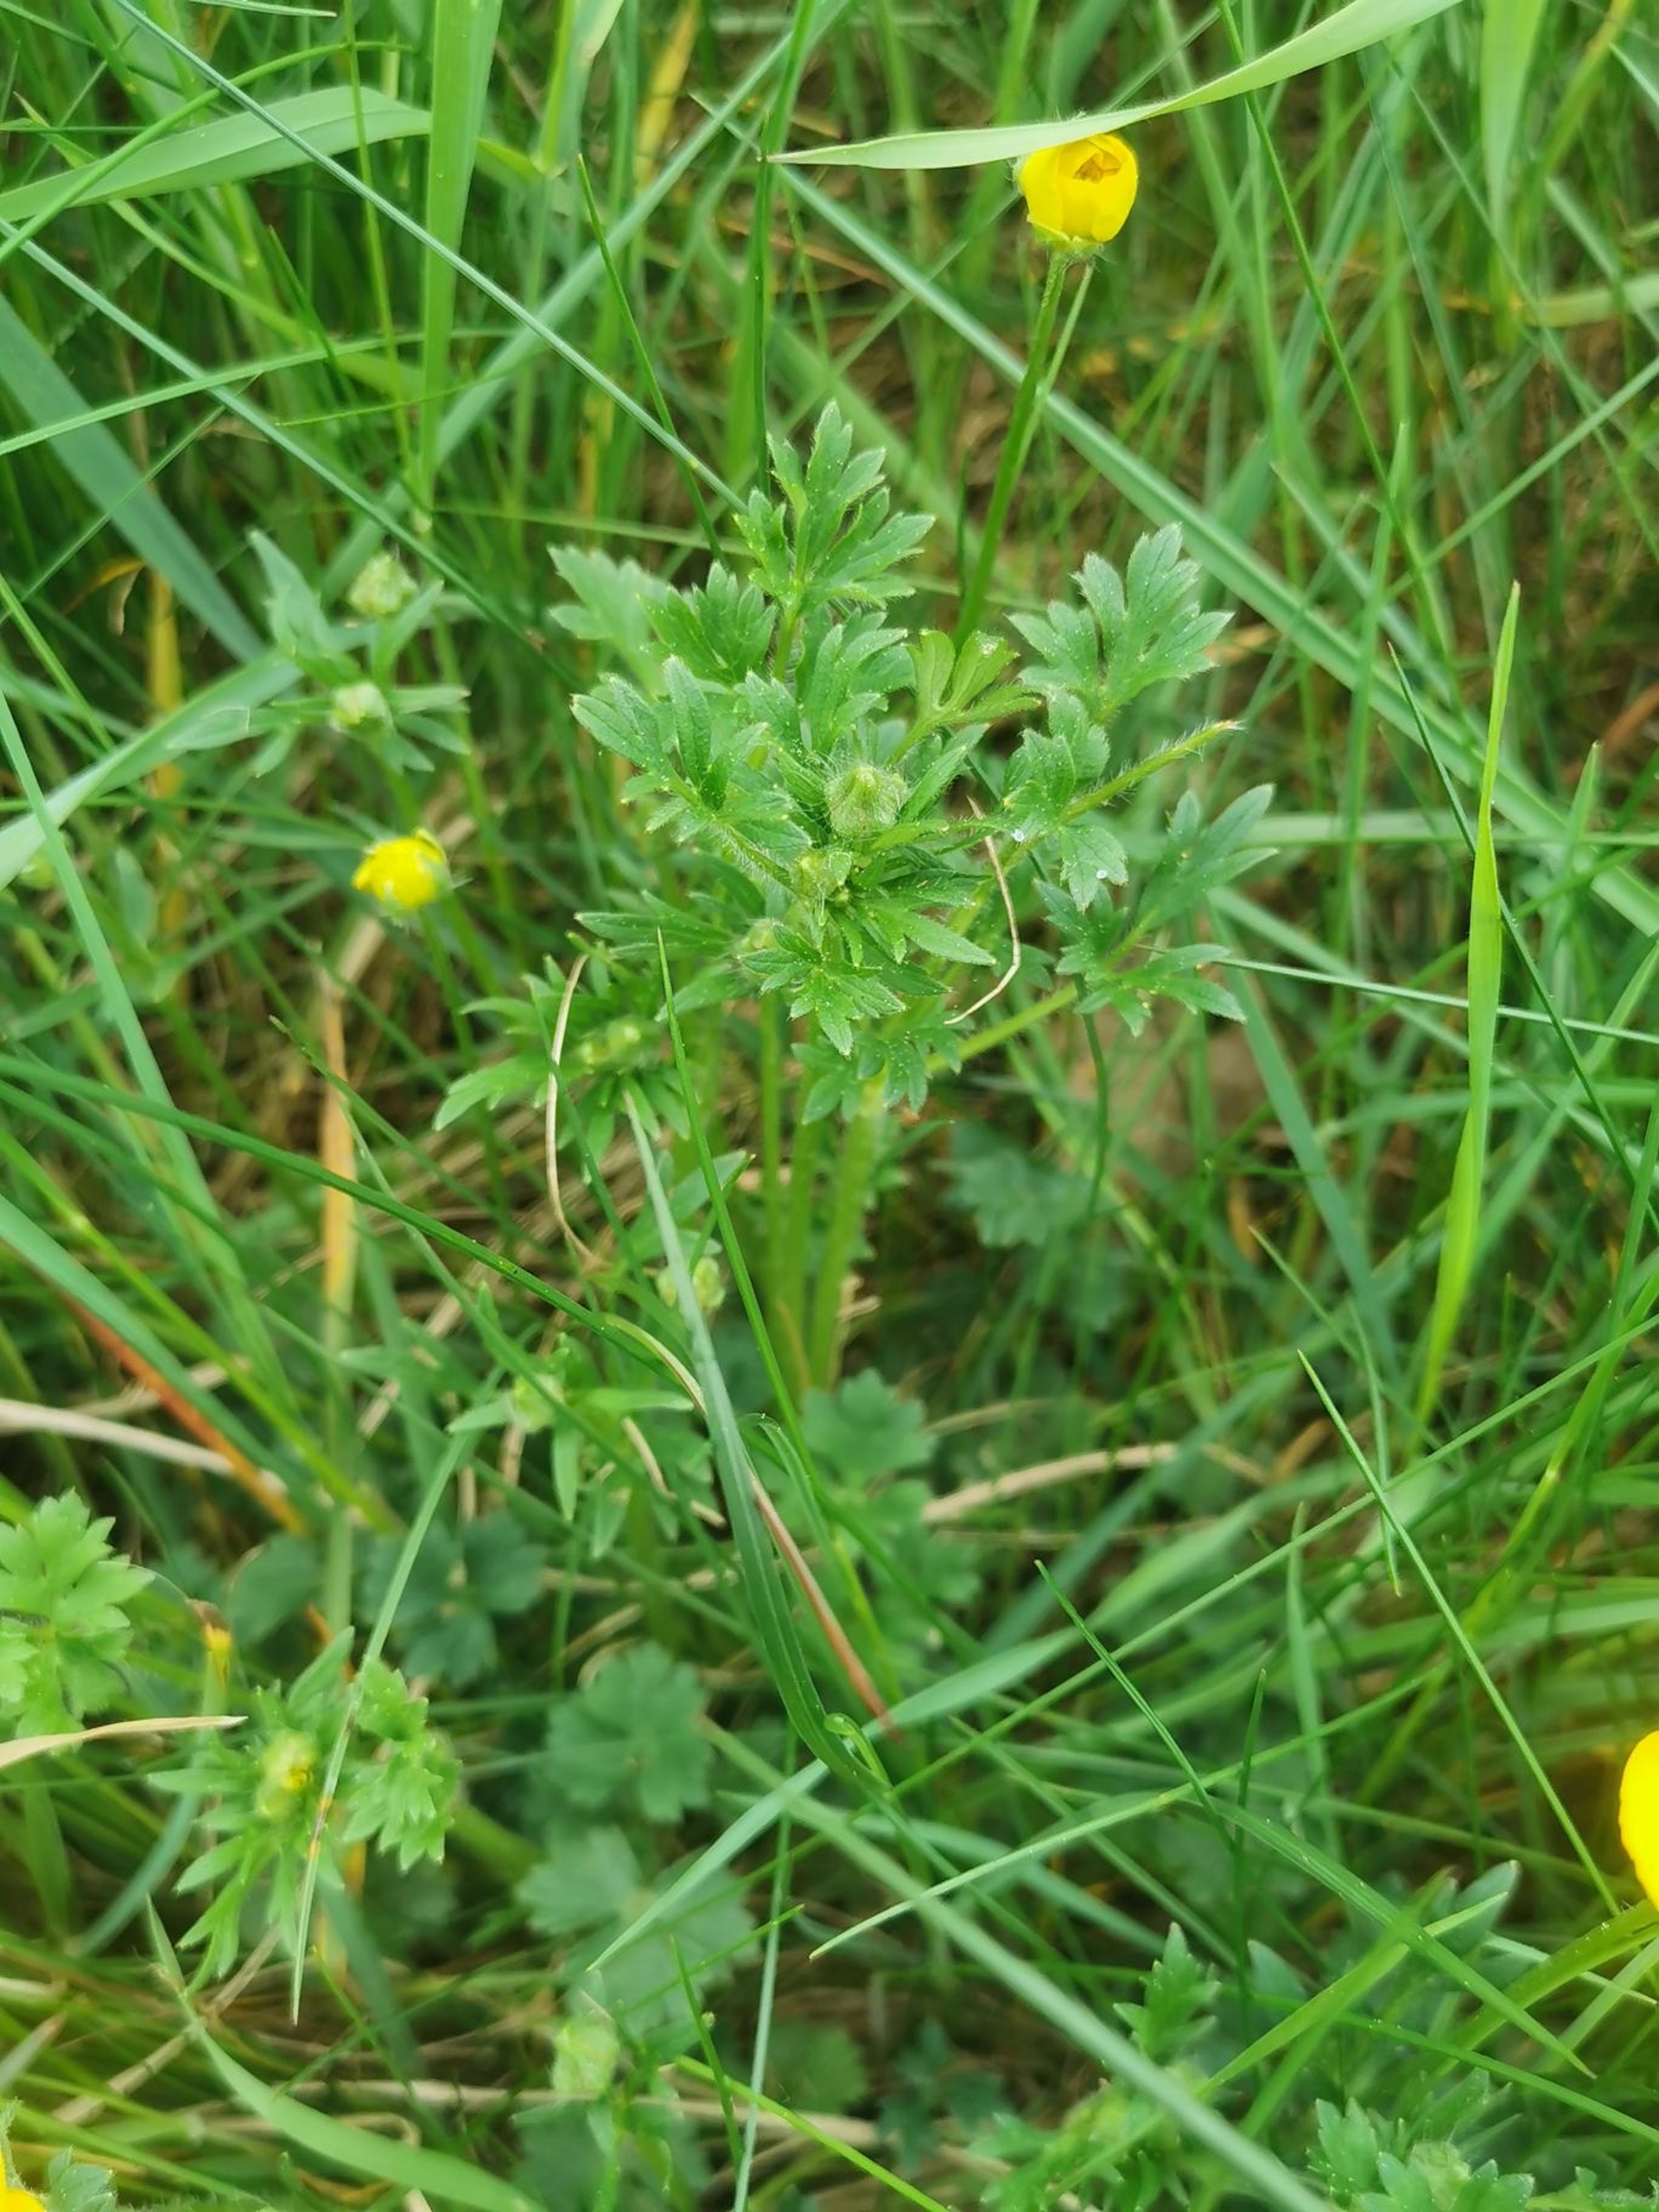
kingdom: Plantae
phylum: Tracheophyta
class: Magnoliopsida
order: Ranunculales
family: Ranunculaceae
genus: Ranunculus
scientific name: Ranunculus bulbosus
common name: Knold-ranunkel
